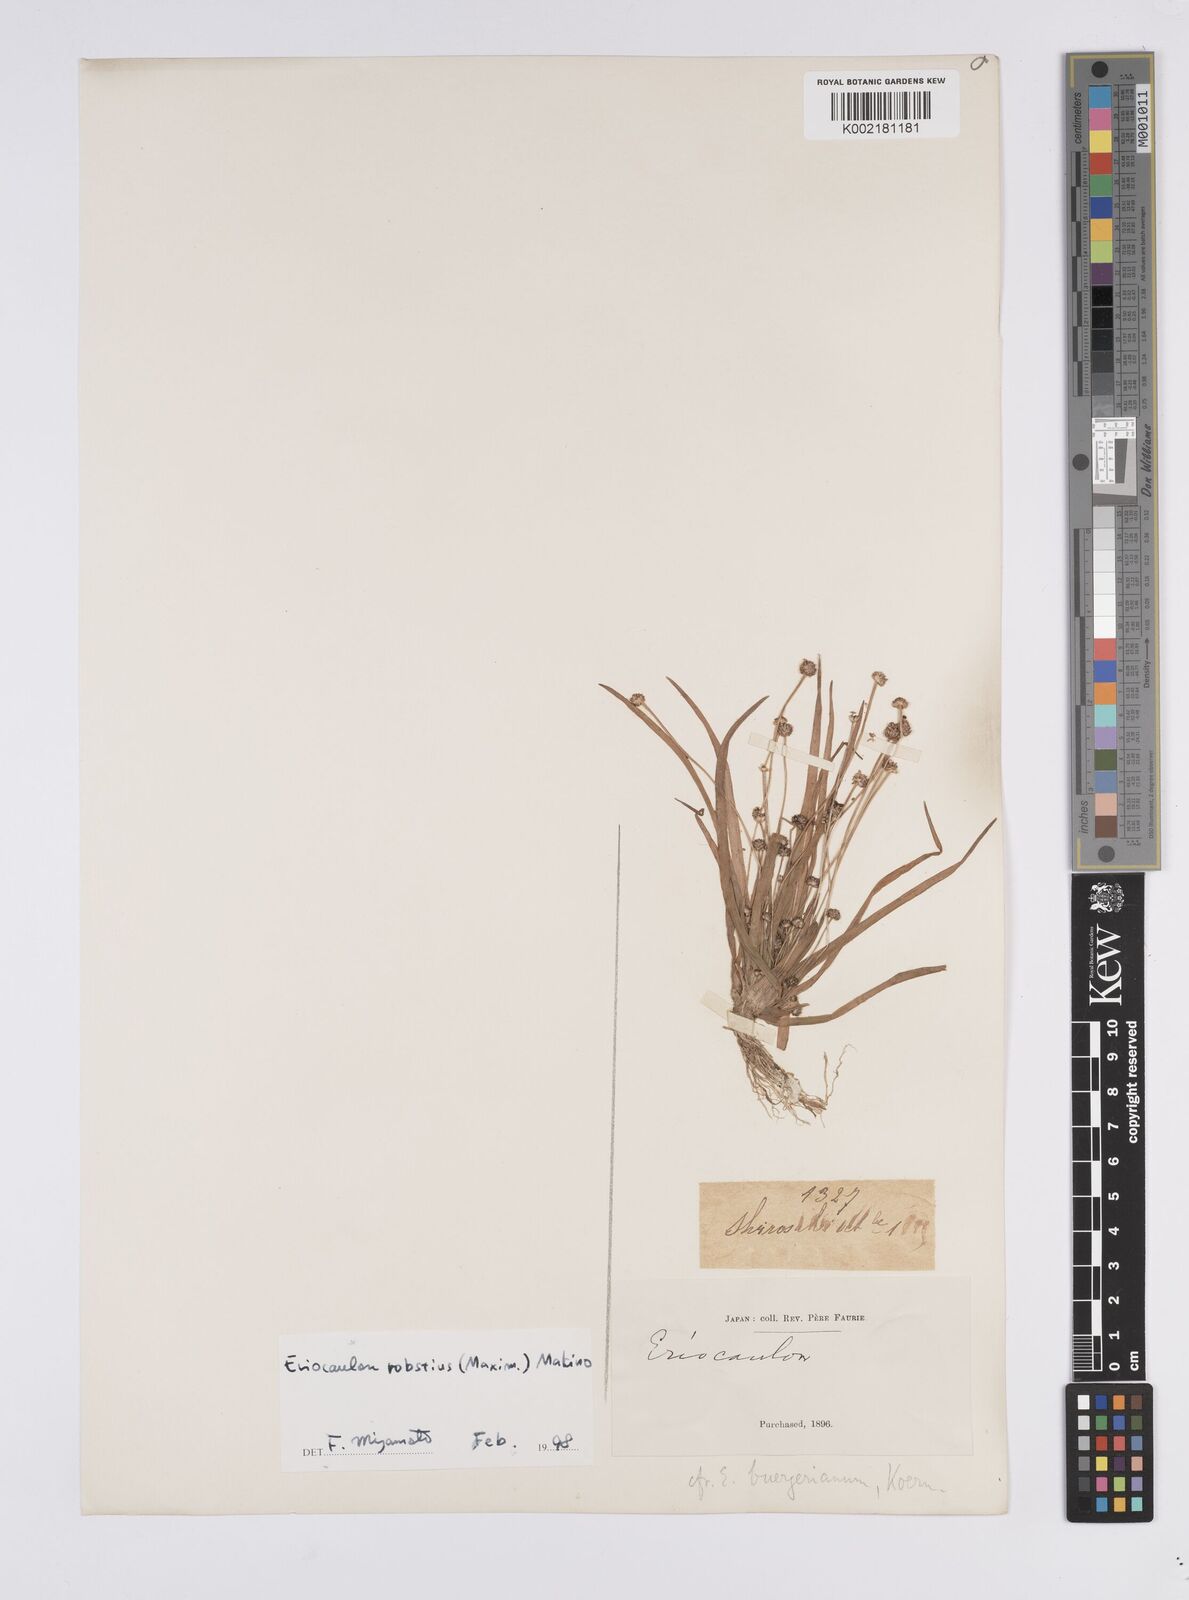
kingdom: Plantae
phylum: Tracheophyta
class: Liliopsida
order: Poales
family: Eriocaulaceae
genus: Eriocaulon
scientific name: Eriocaulon alpestre
